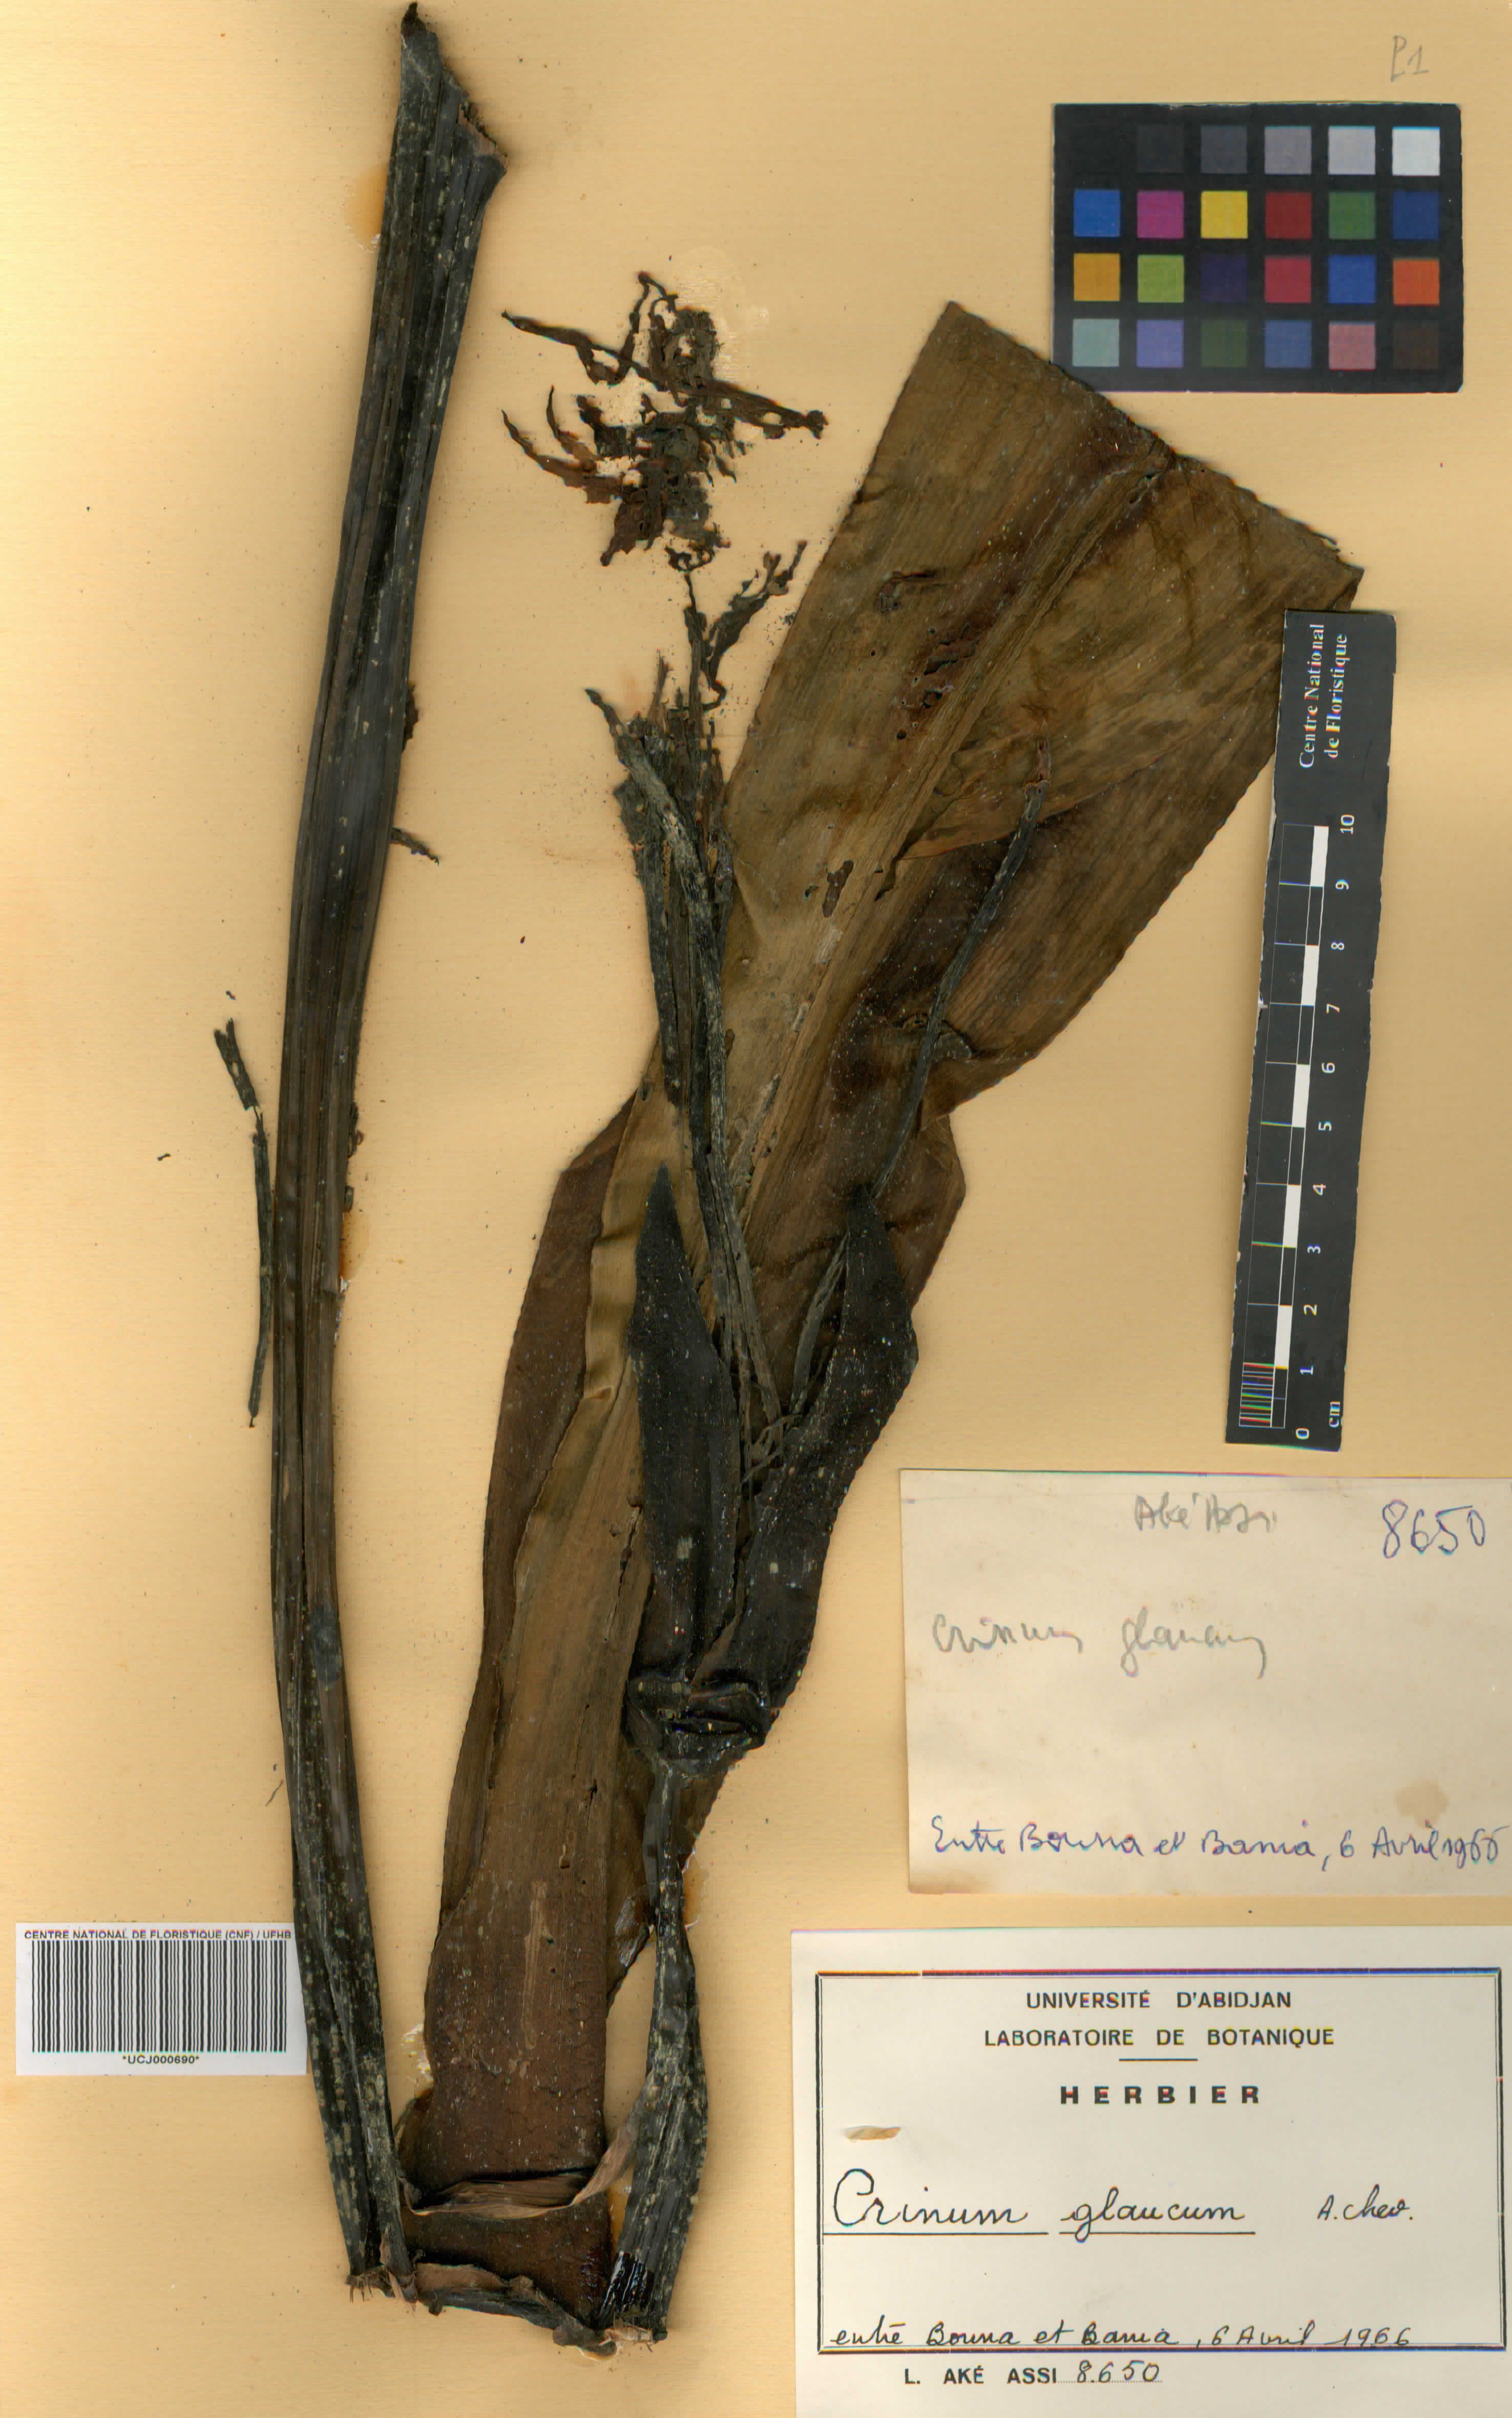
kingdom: Plantae
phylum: Tracheophyta
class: Liliopsida
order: Asparagales
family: Amaryllidaceae
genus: Crinum
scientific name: Crinum glaucum
